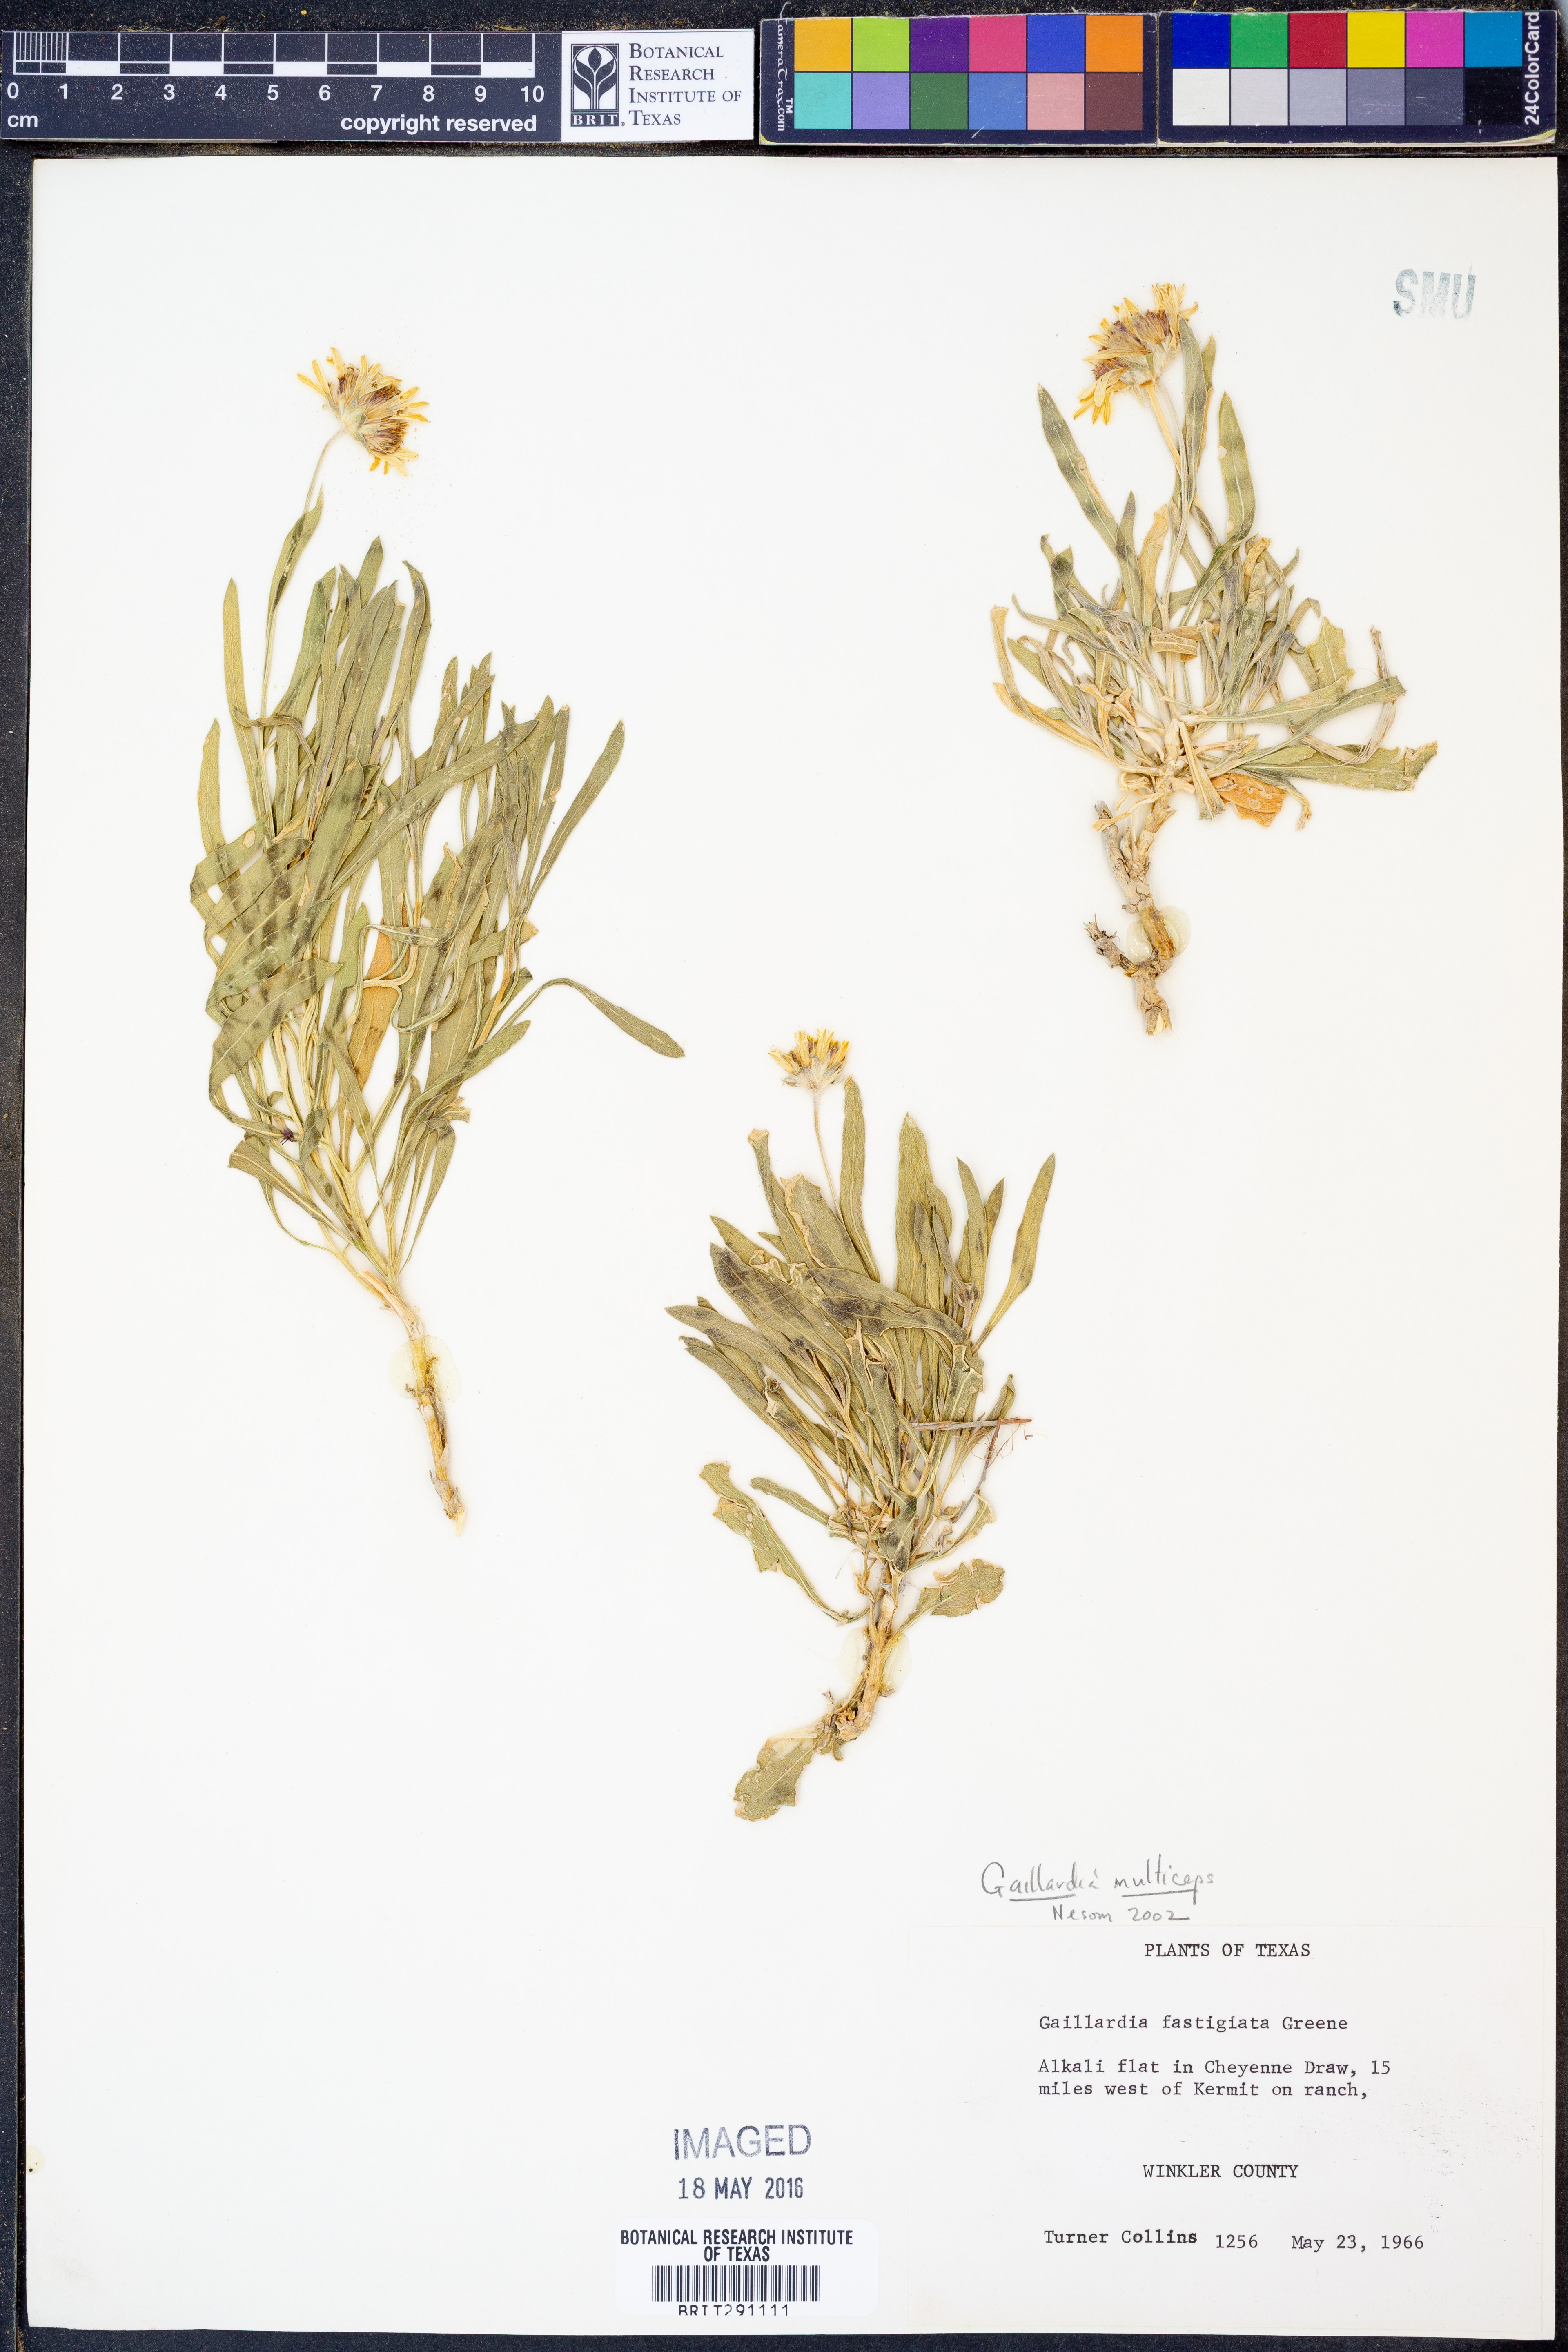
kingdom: Plantae
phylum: Tracheophyta
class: Magnoliopsida
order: Asterales
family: Asteraceae
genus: Gaillardia
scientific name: Gaillardia multiceps
